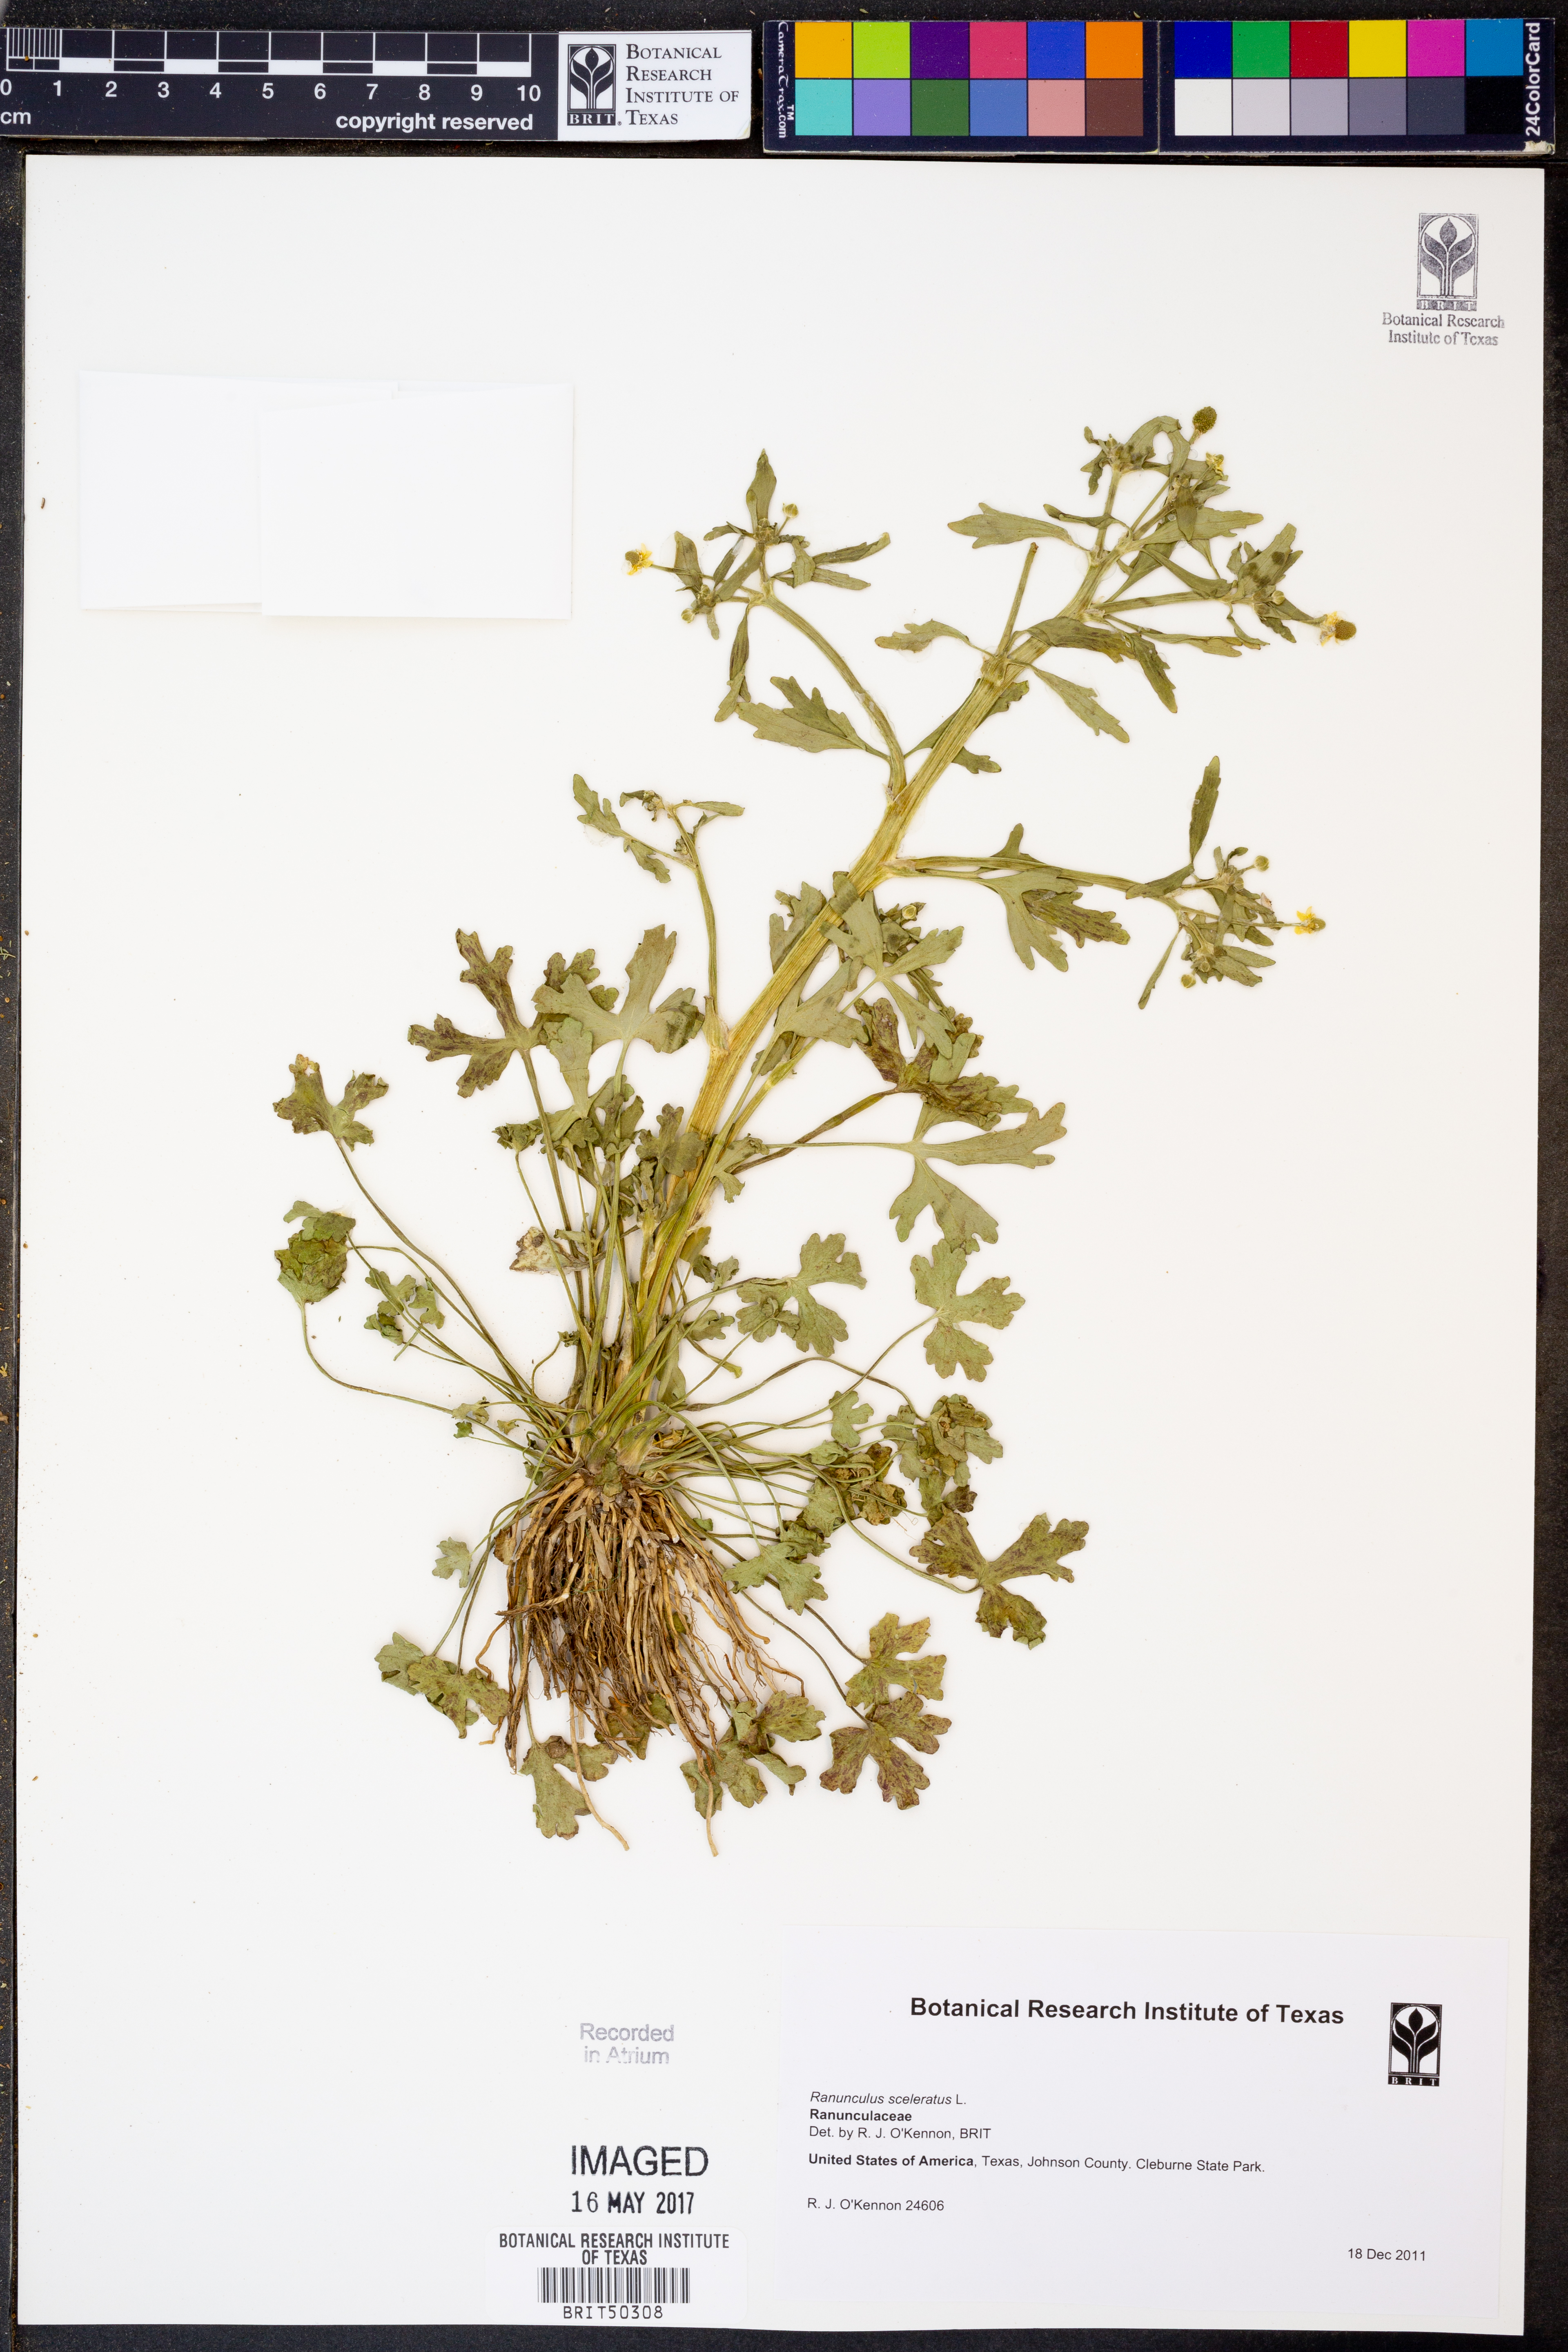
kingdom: Plantae
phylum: Tracheophyta
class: Magnoliopsida
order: Ranunculales
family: Ranunculaceae
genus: Ranunculus
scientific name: Ranunculus sceleratus
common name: Celery-leaved buttercup
